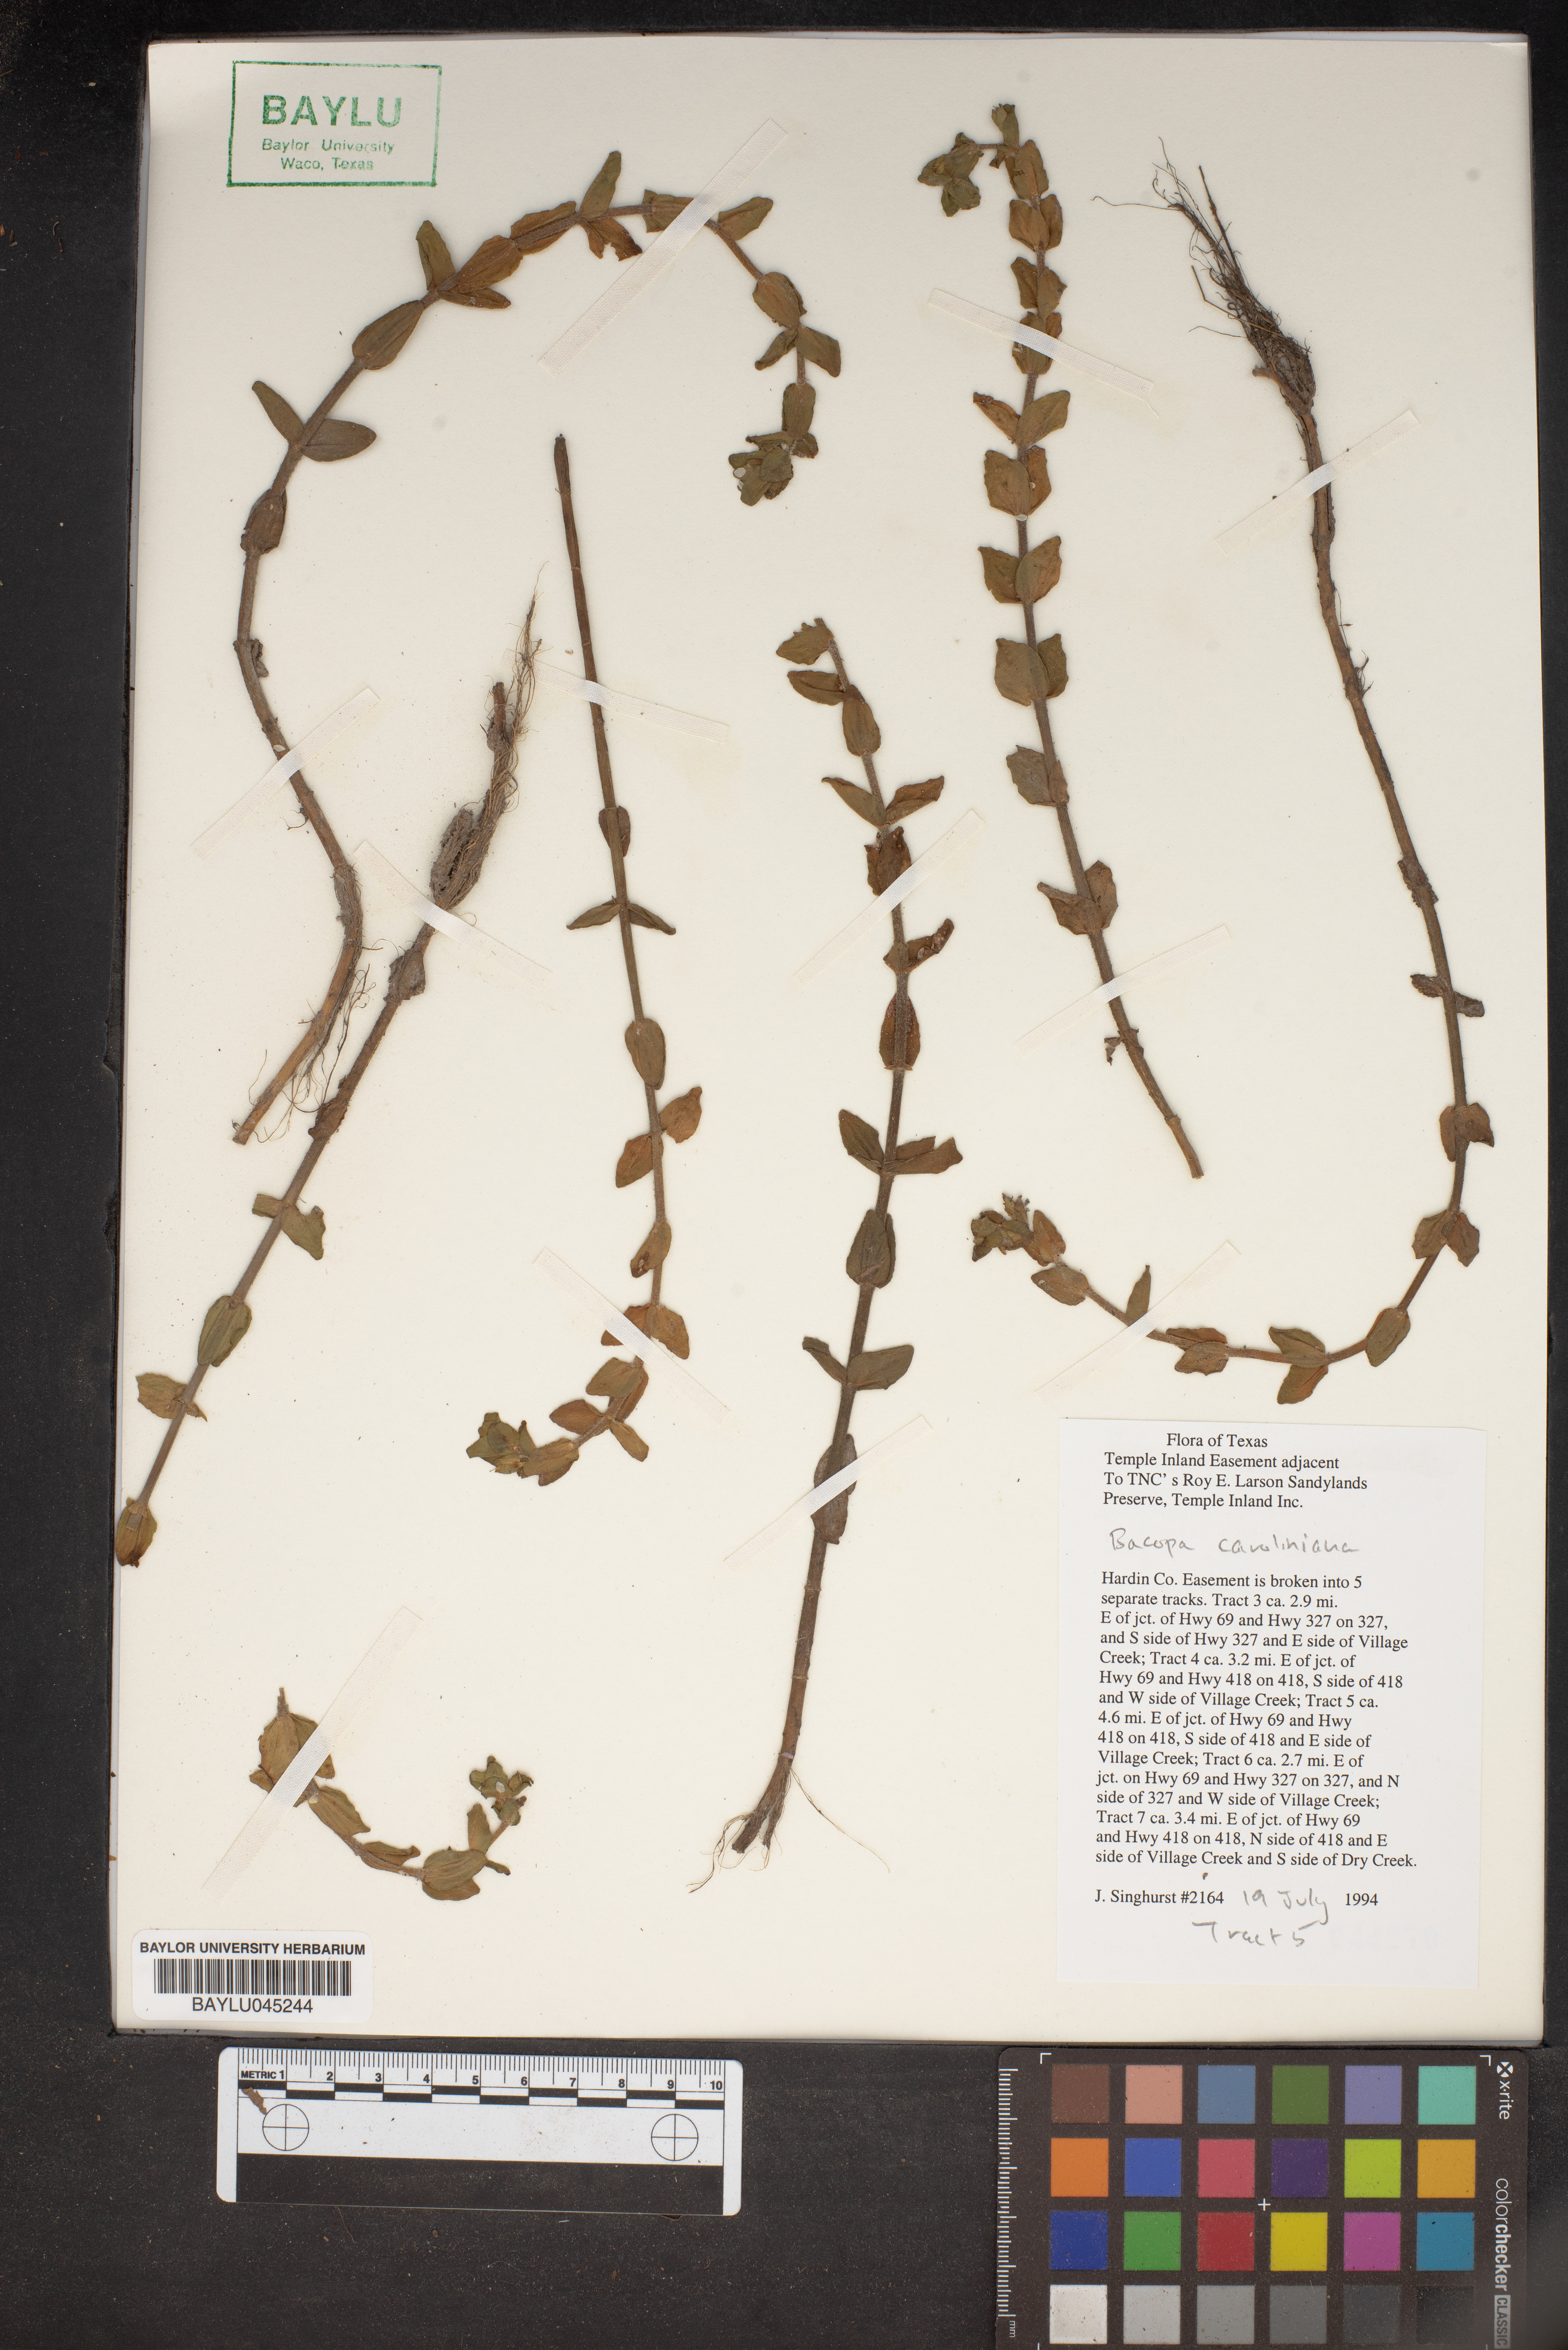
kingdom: Plantae
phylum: Tracheophyta
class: Magnoliopsida
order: Lamiales
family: Plantaginaceae
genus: Bacopa
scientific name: Bacopa caroliniana
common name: Lemon bacopa
